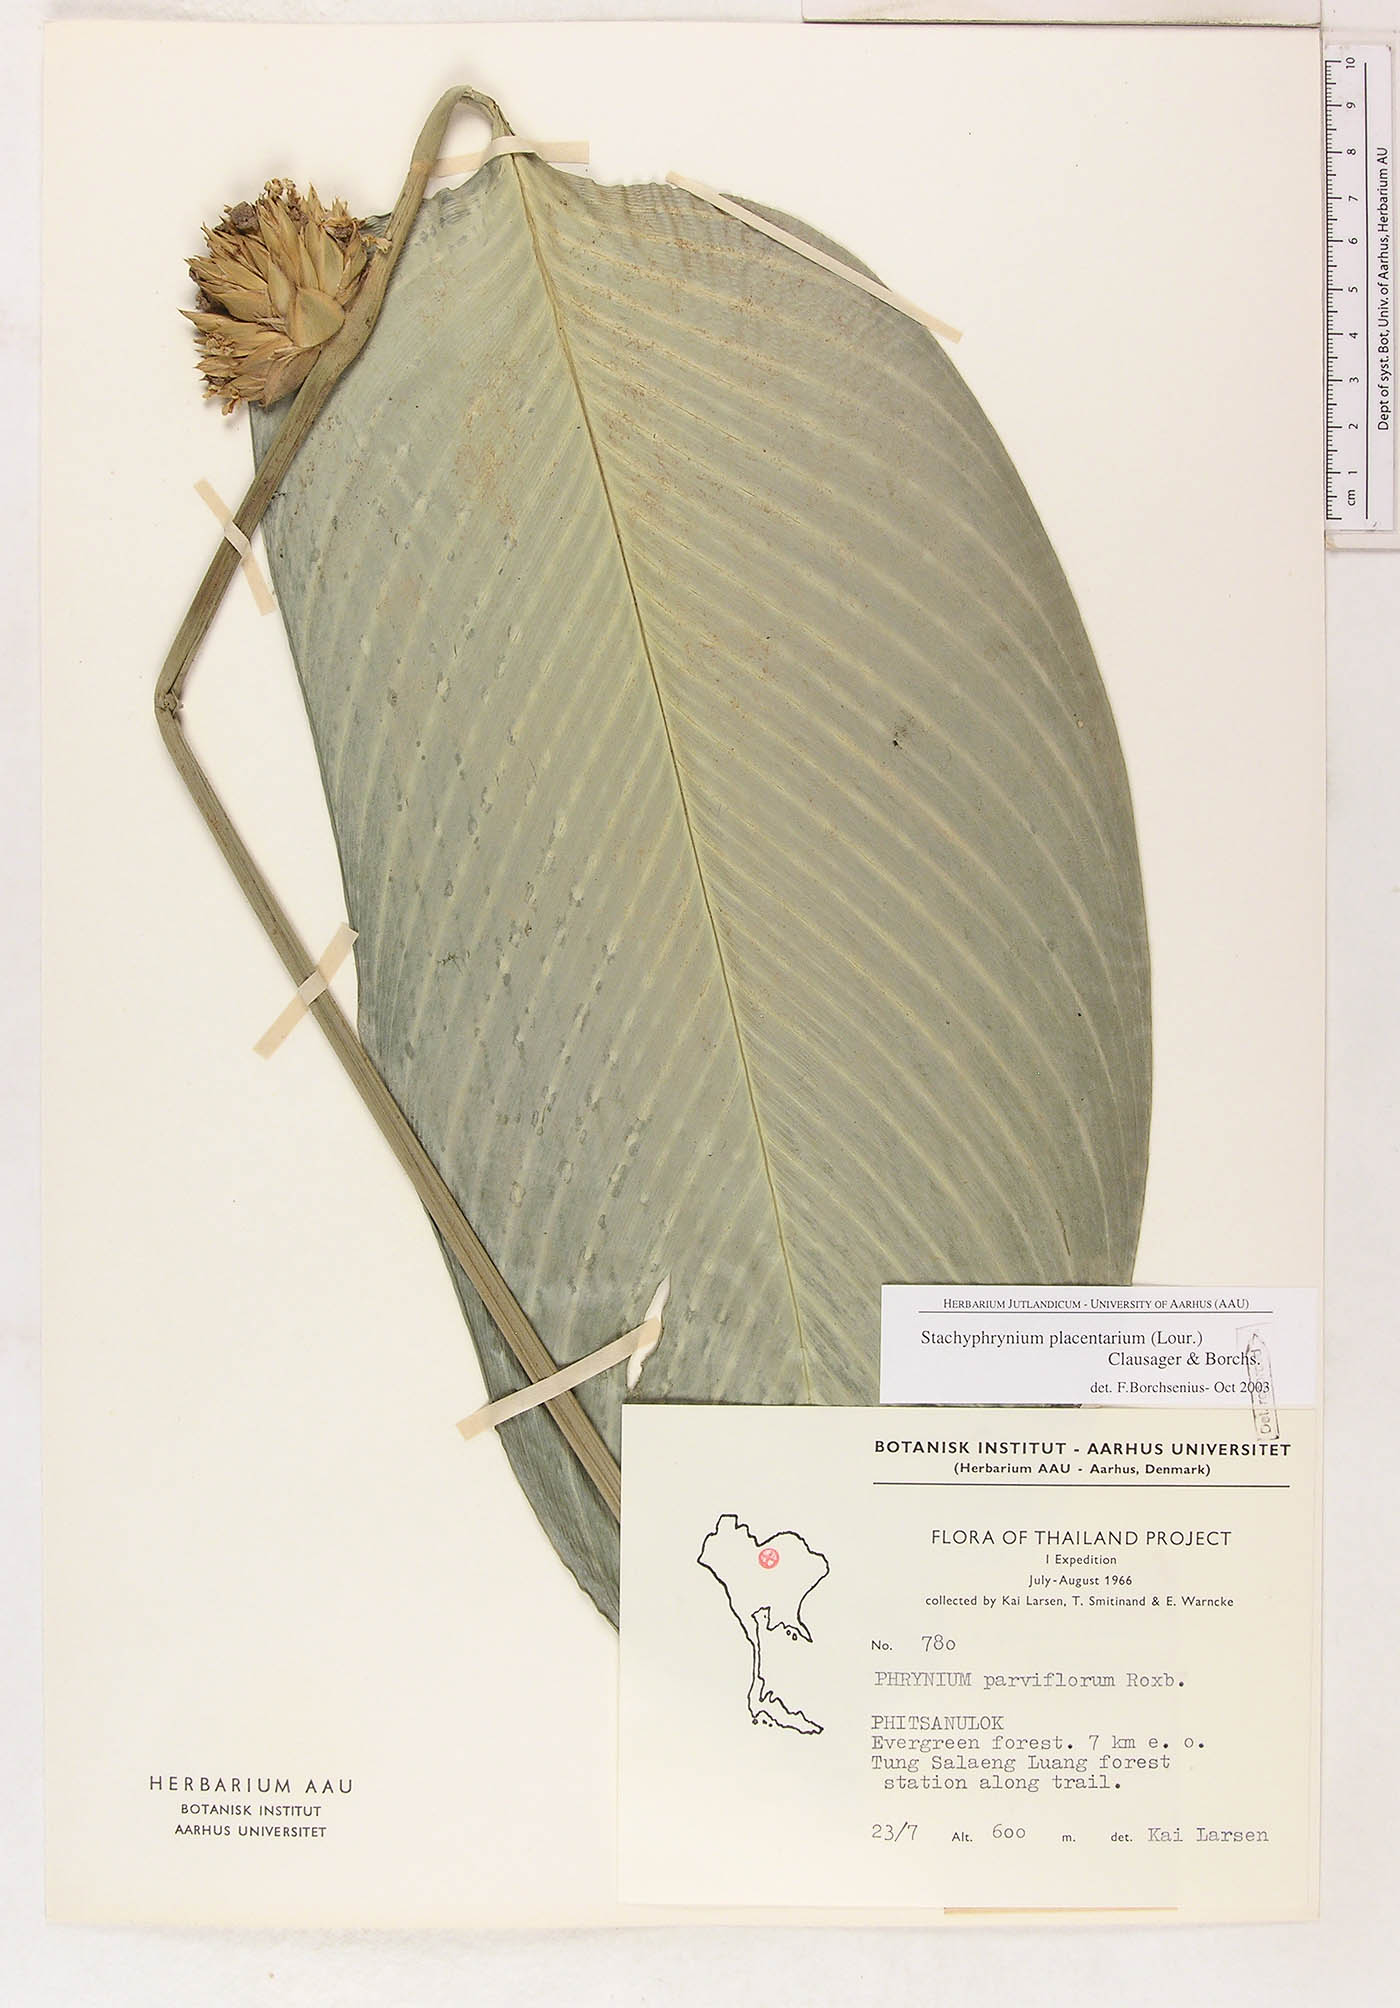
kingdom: Plantae
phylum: Tracheophyta
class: Liliopsida
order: Zingiberales
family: Marantaceae
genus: Stachyphrynium
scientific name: Stachyphrynium placentarium
